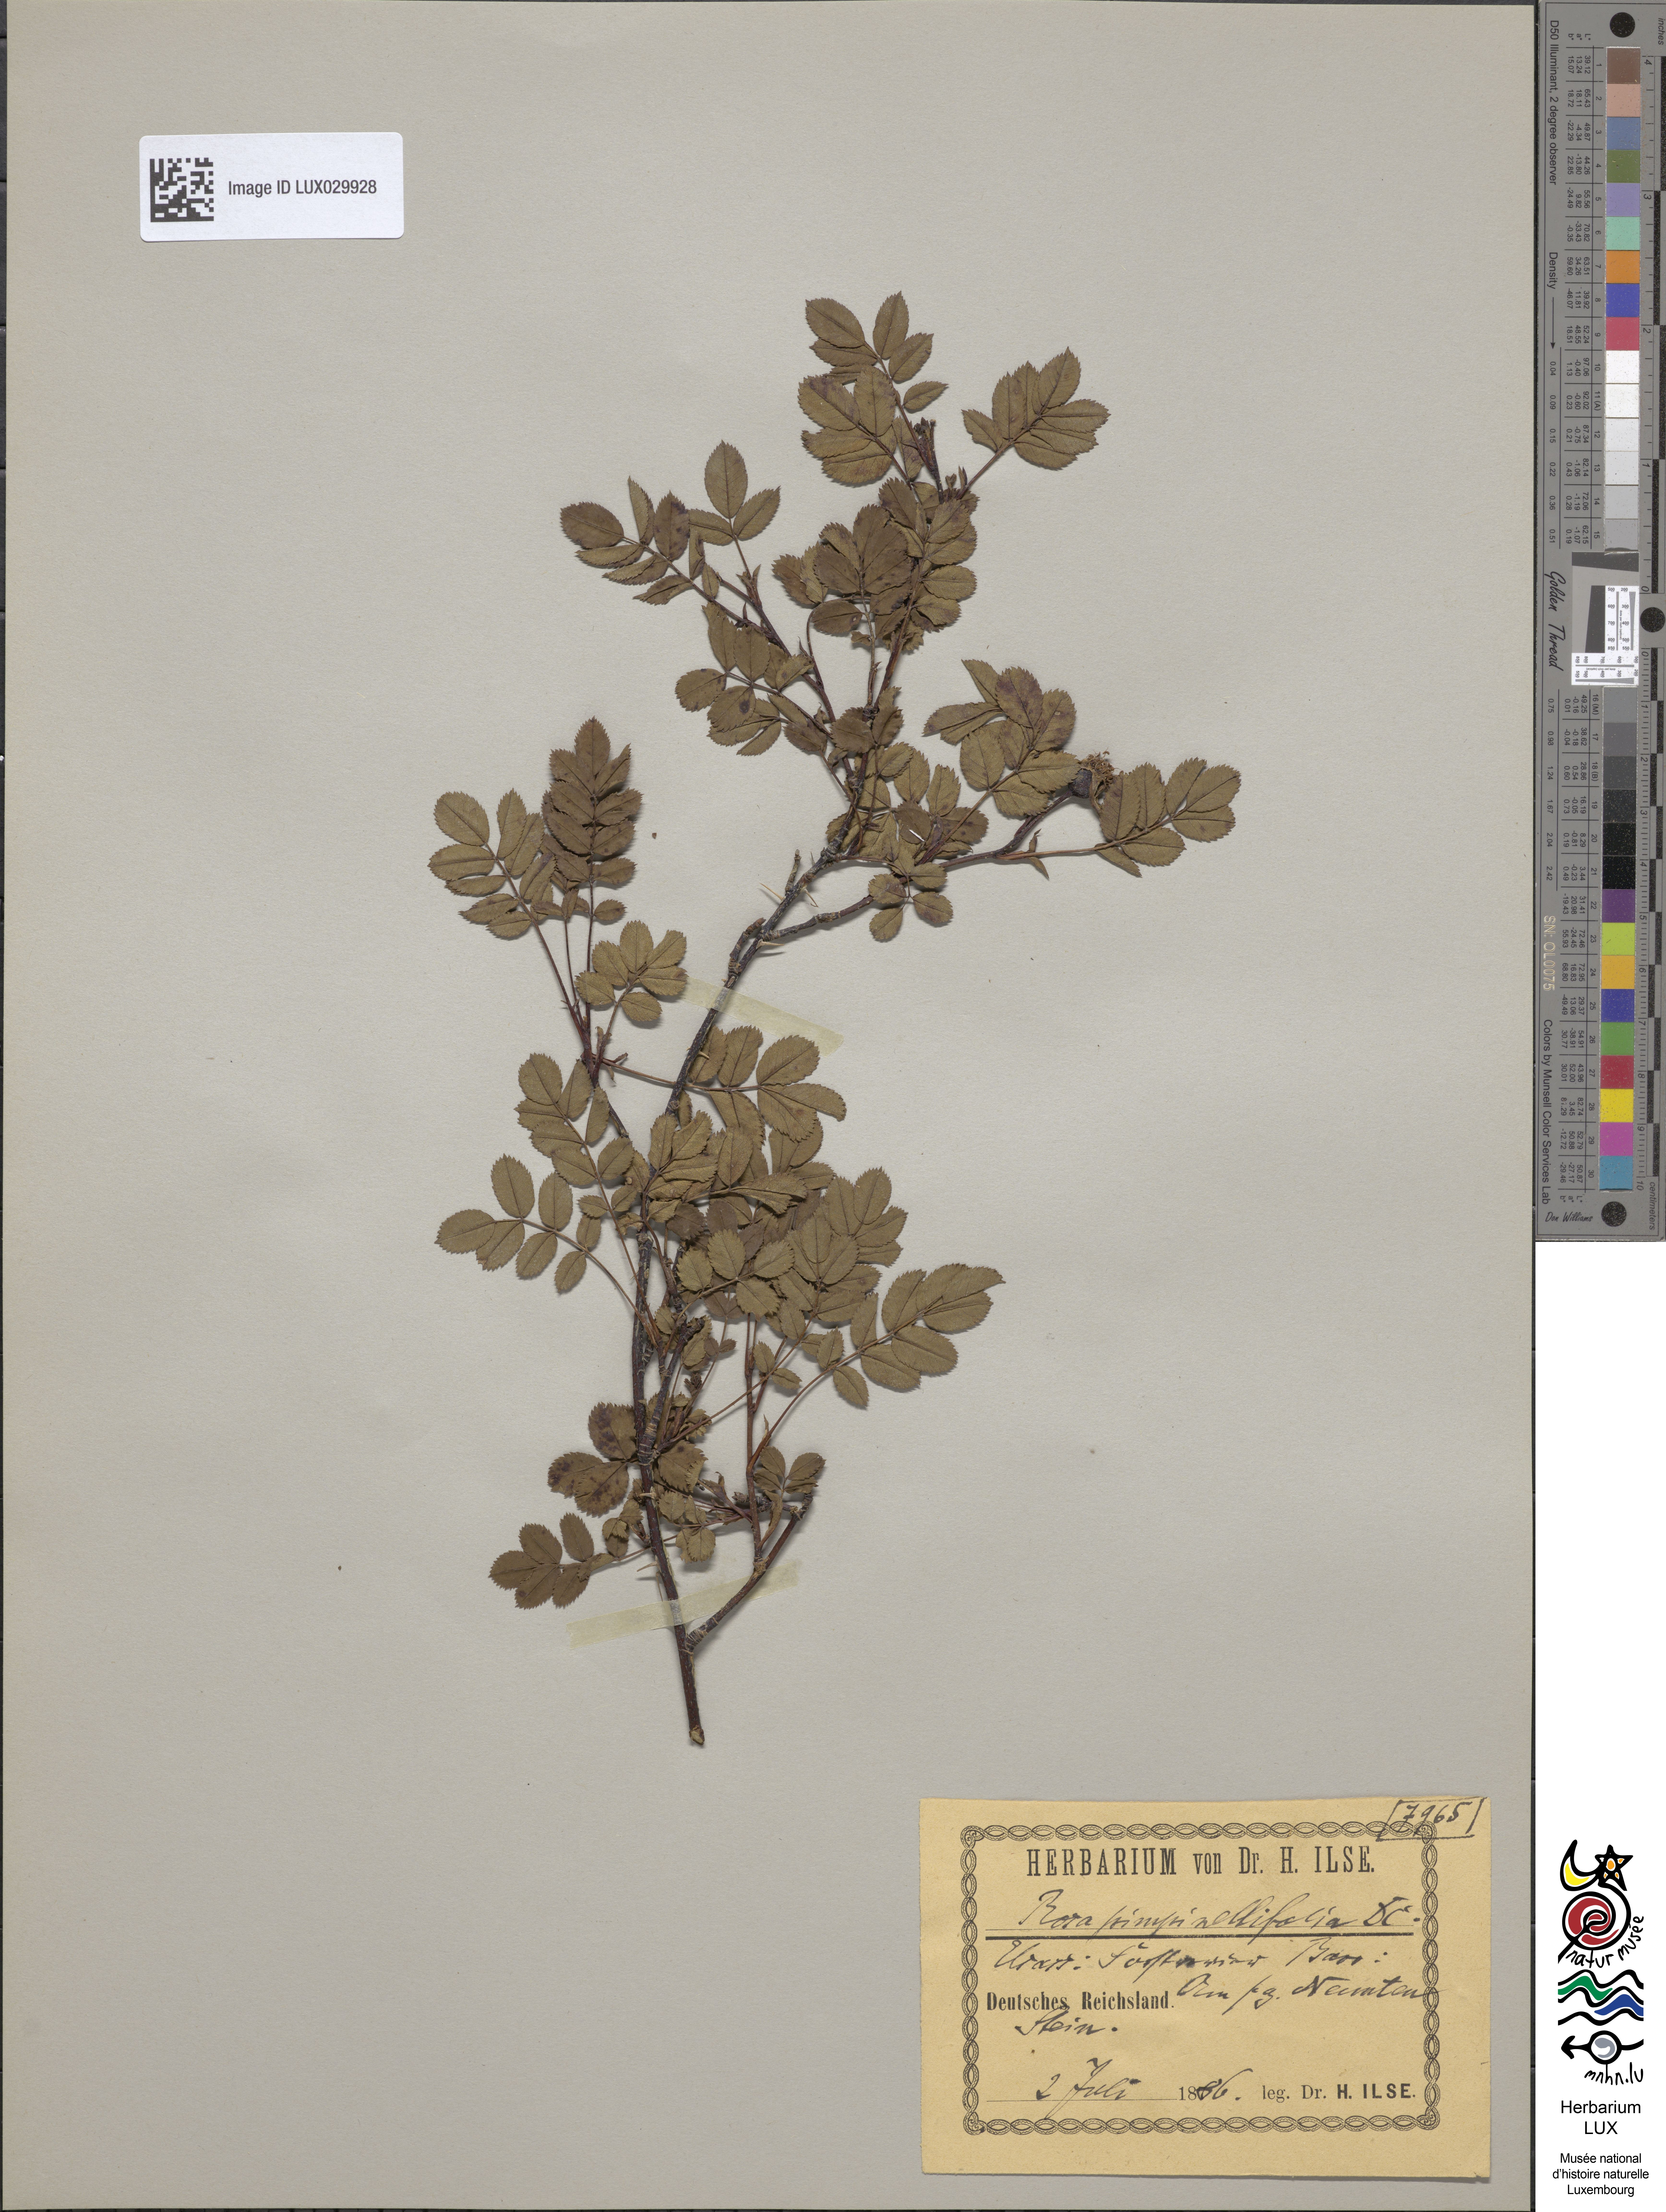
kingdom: Plantae
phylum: Tracheophyta
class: Magnoliopsida
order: Rosales
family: Rosaceae
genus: Rosa
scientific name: Rosa
